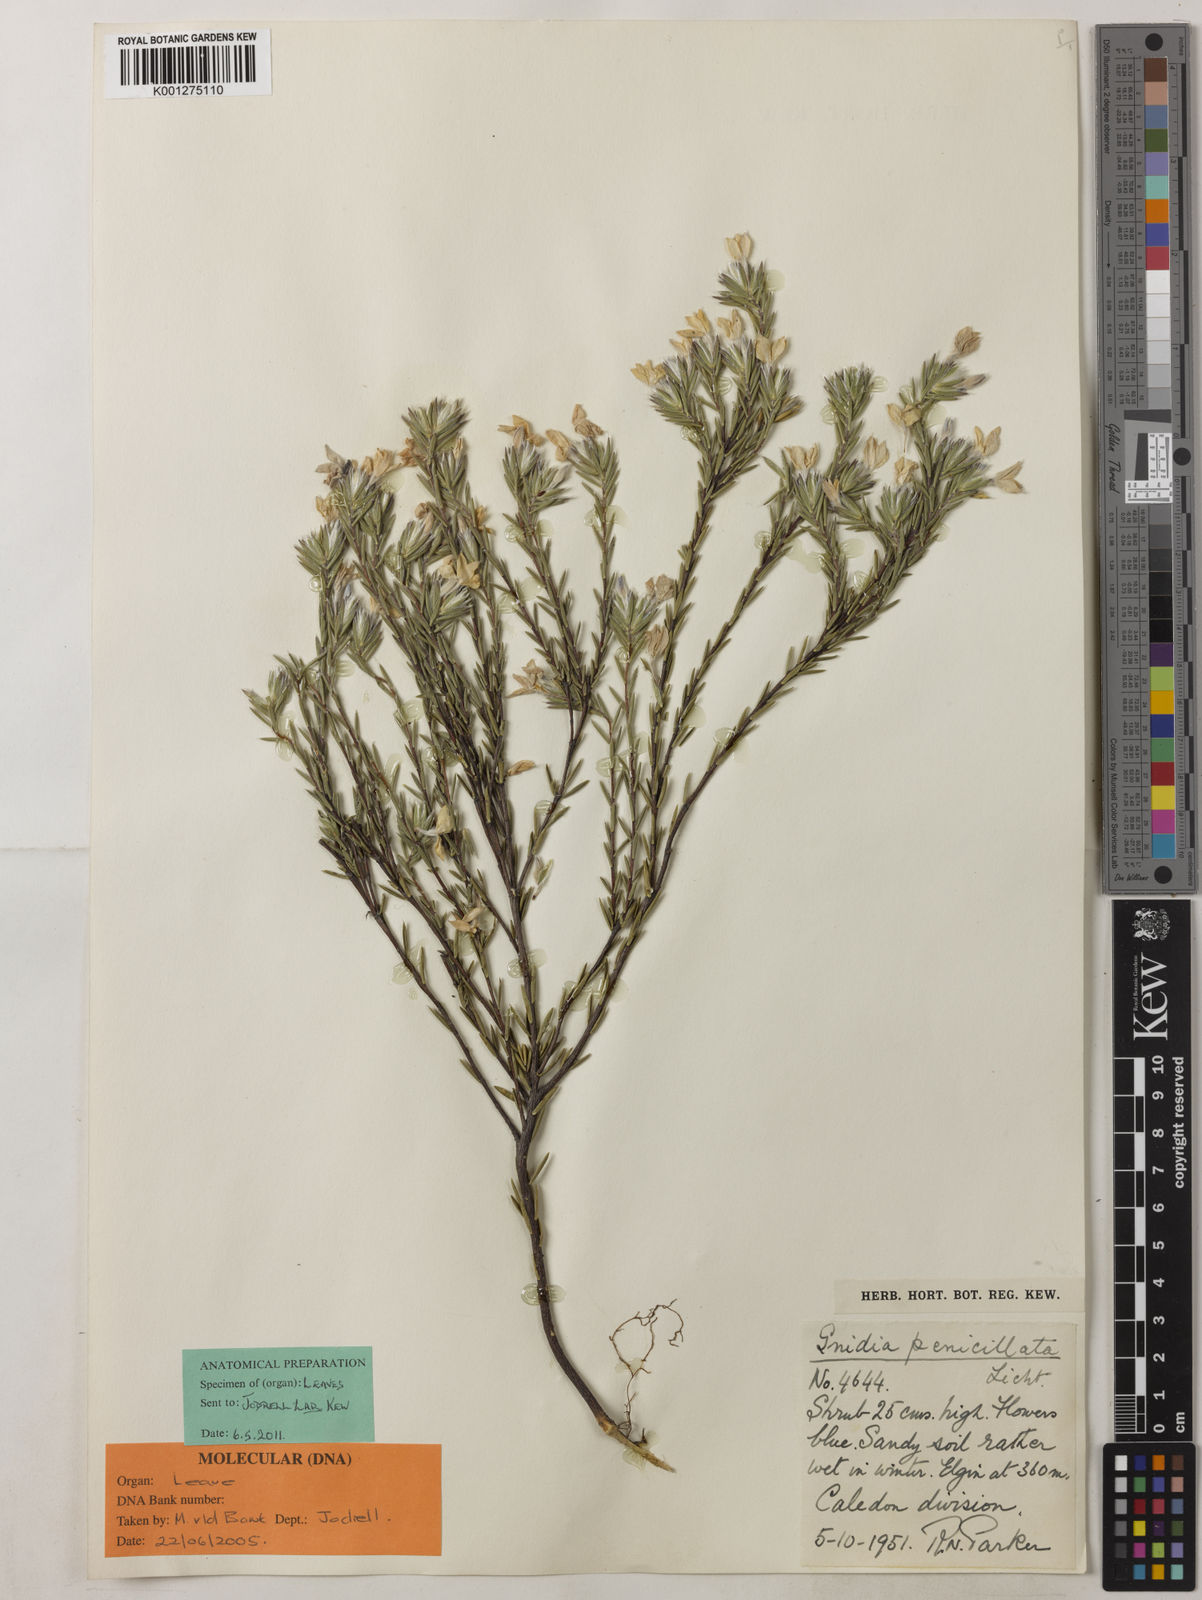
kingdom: Plantae
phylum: Tracheophyta
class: Magnoliopsida
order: Malvales
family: Thymelaeaceae
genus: Gnidia
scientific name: Gnidia penicillata
